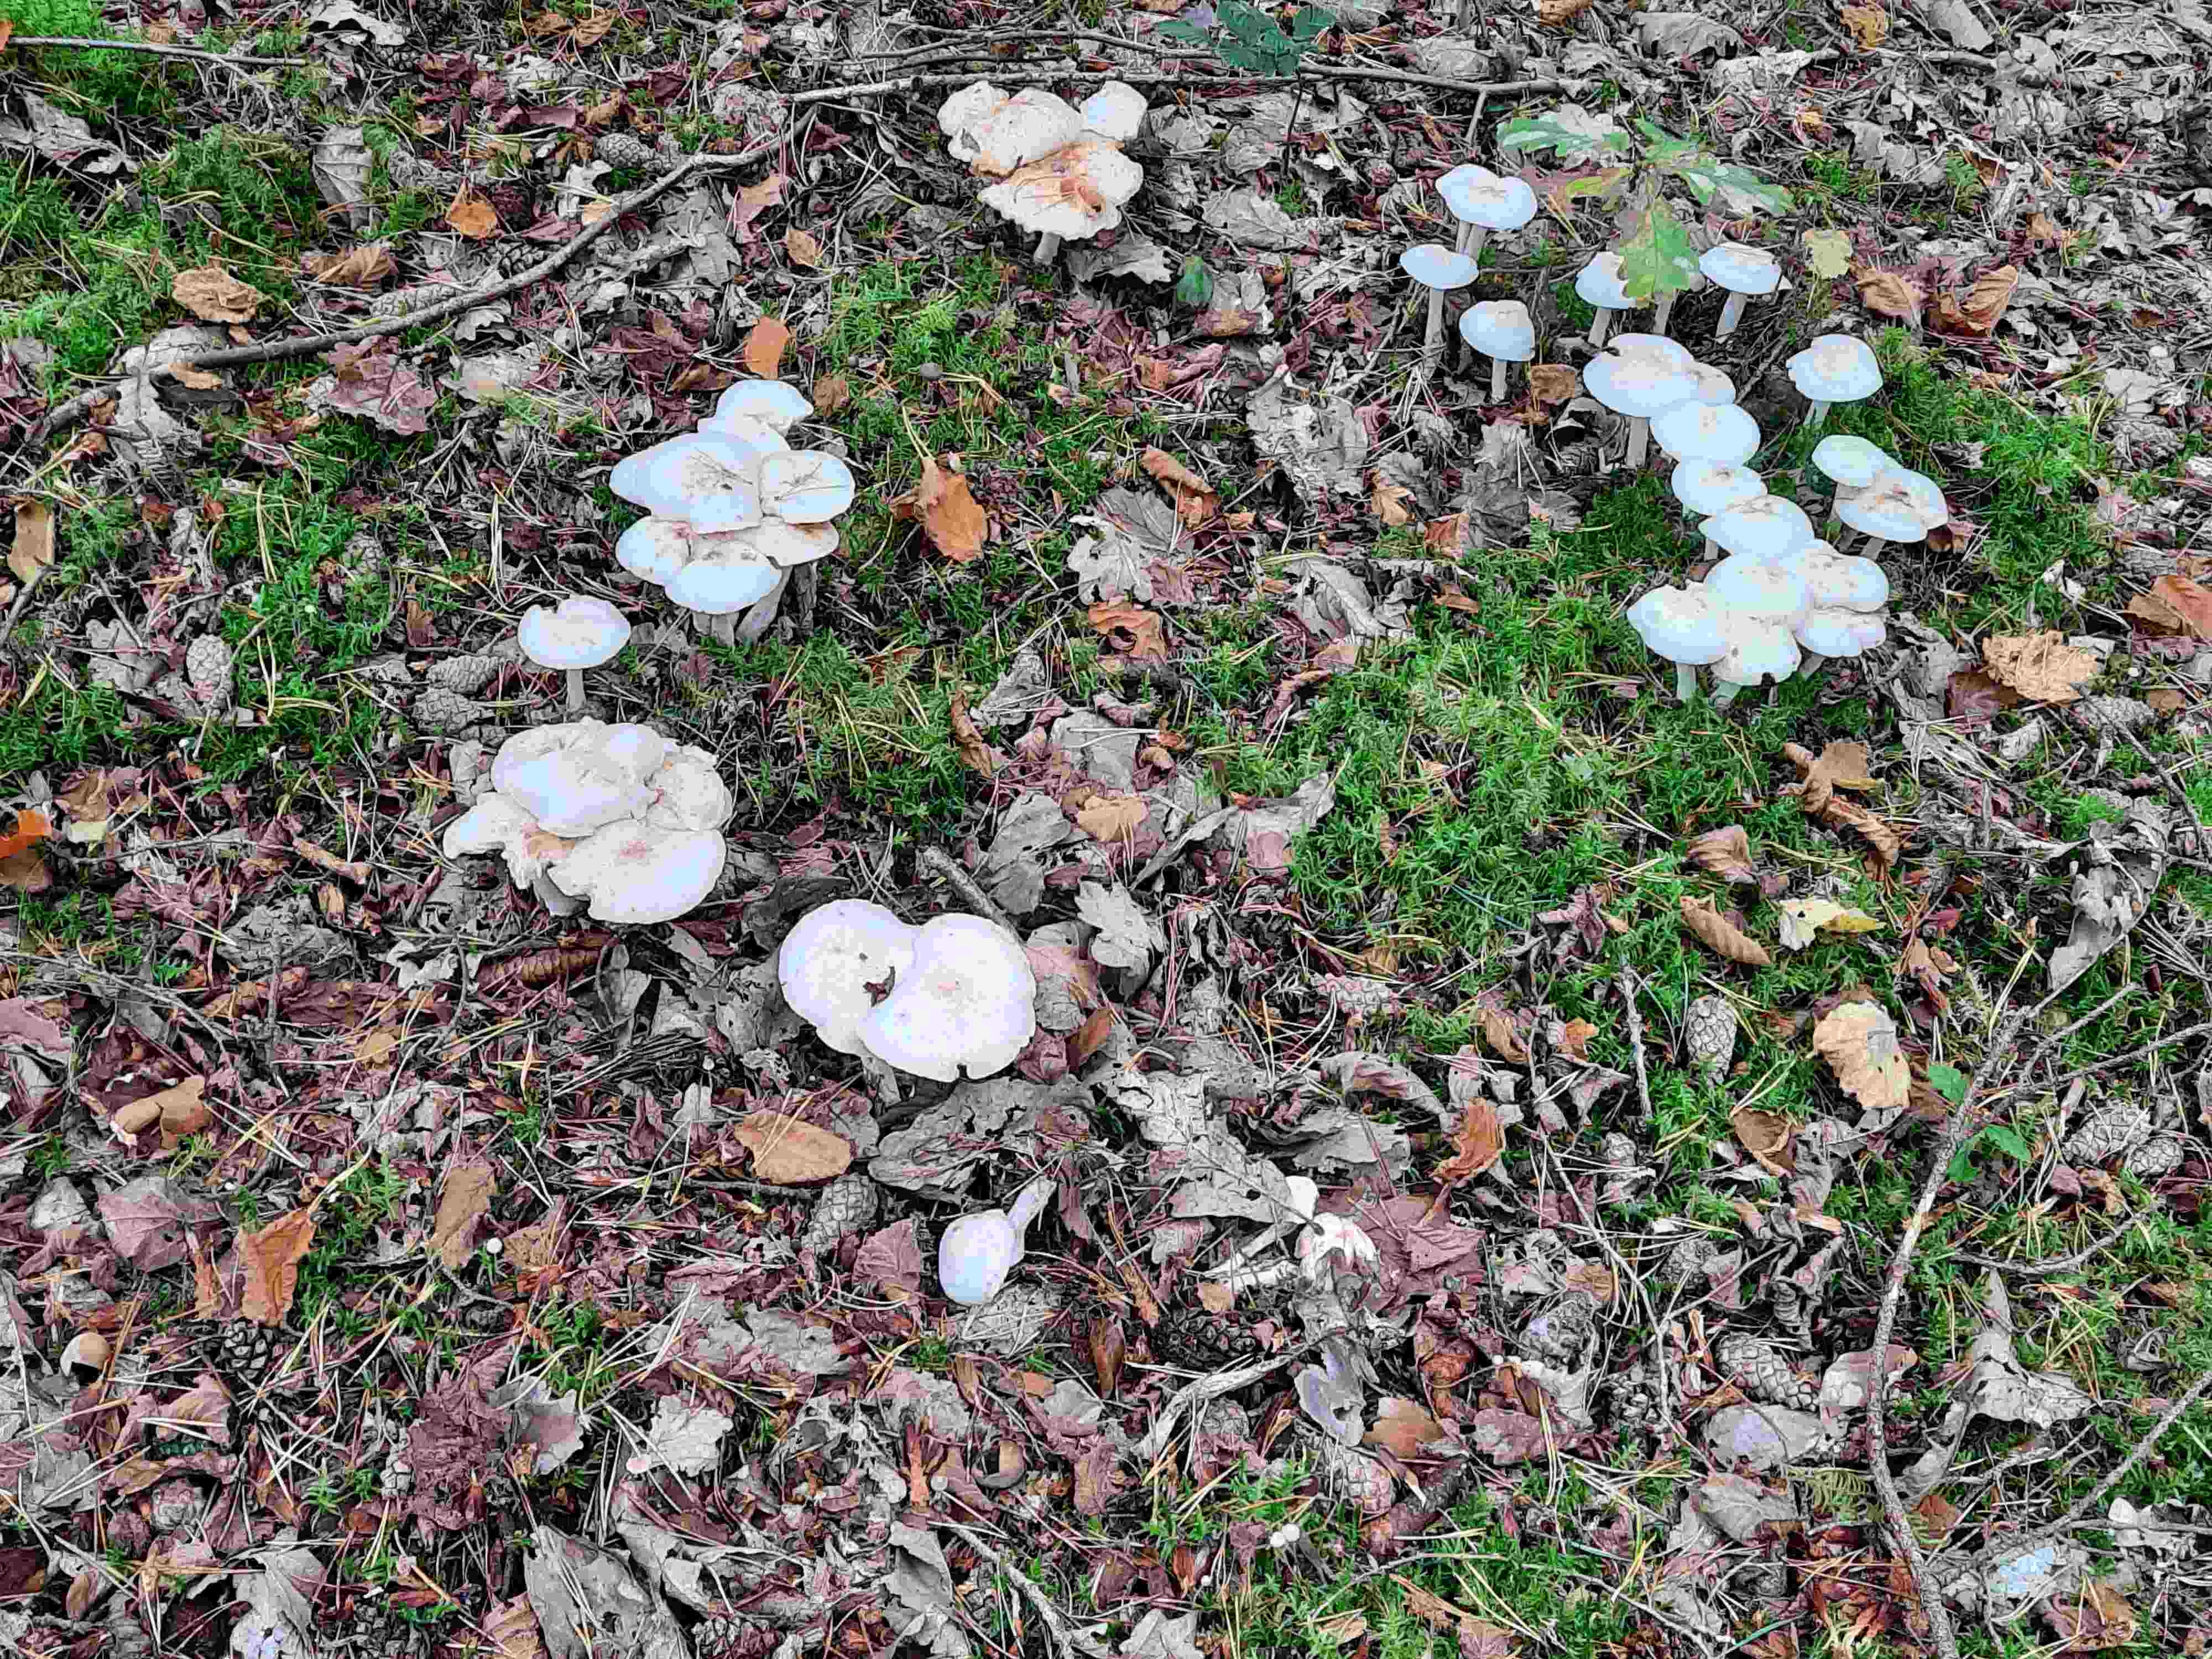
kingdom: Fungi
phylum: Basidiomycota
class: Agaricomycetes
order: Agaricales
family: Omphalotaceae
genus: Rhodocollybia
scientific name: Rhodocollybia maculata
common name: plettet fladhat
